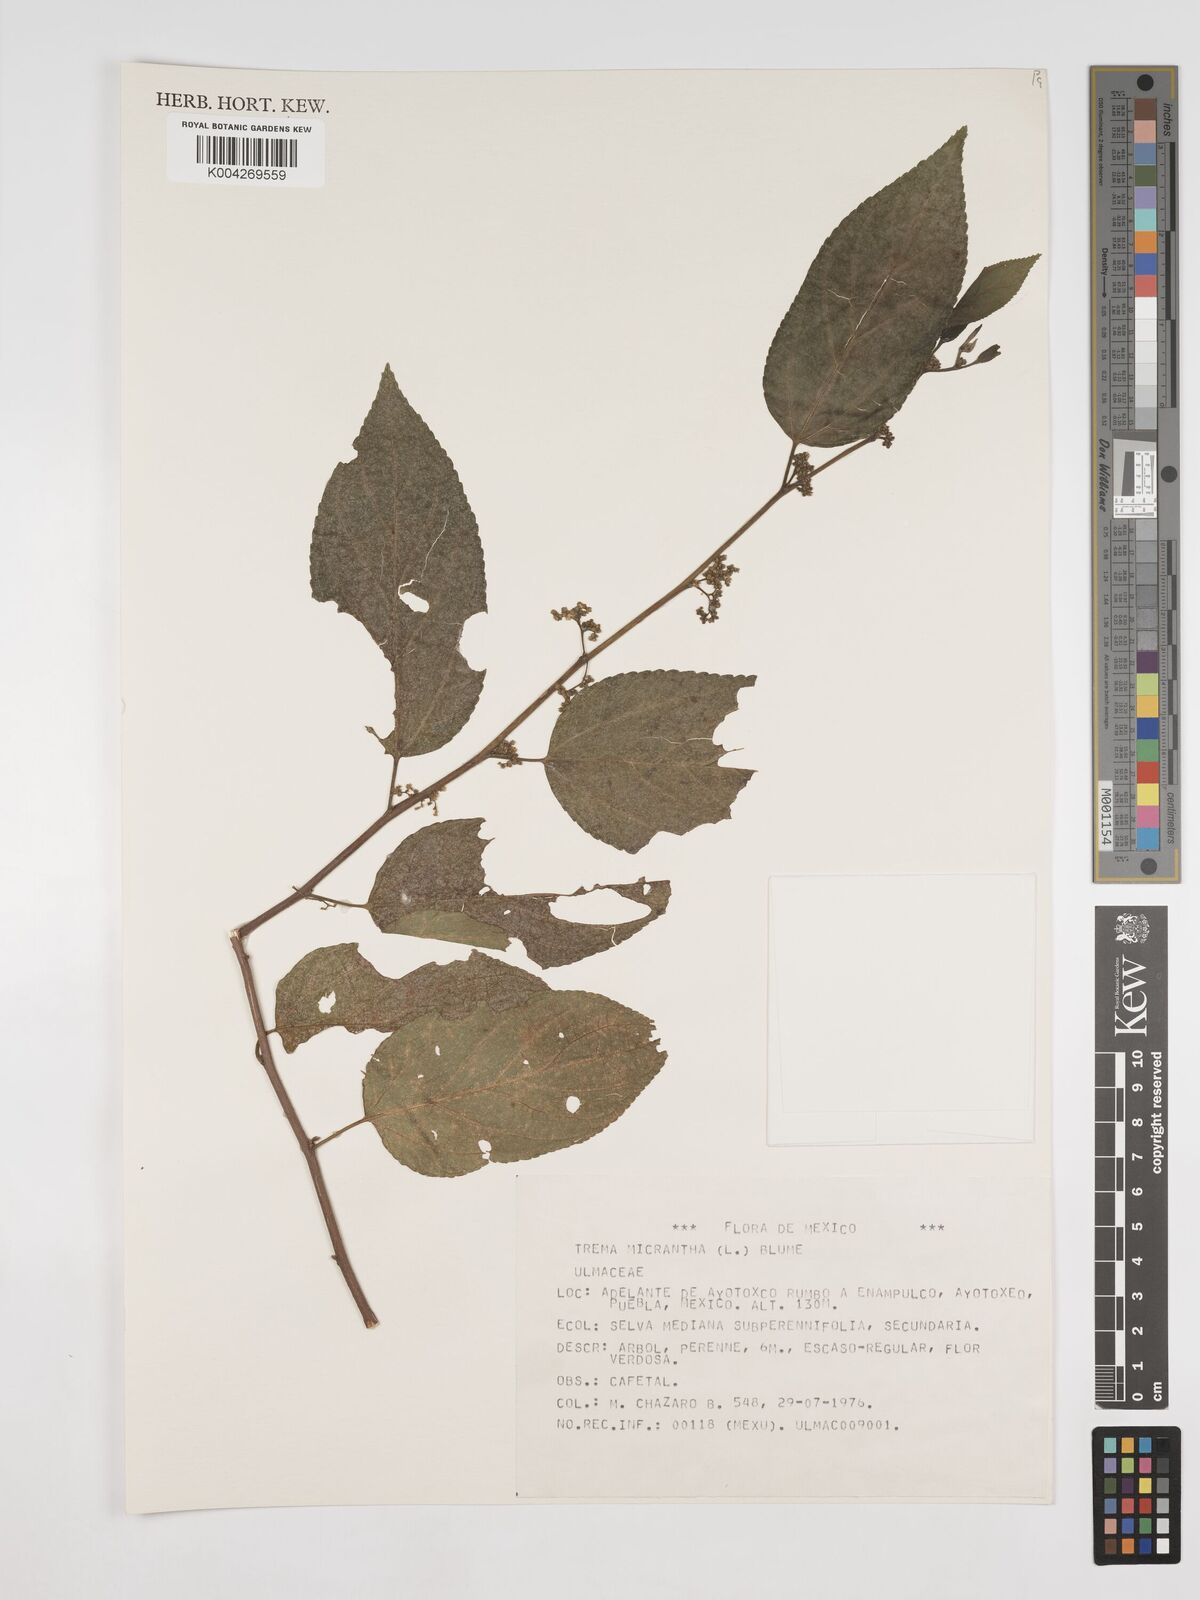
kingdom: Plantae
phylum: Tracheophyta
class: Magnoliopsida
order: Rosales
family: Cannabaceae
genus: Trema
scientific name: Trema micranthum
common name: Jamaican nettletree
